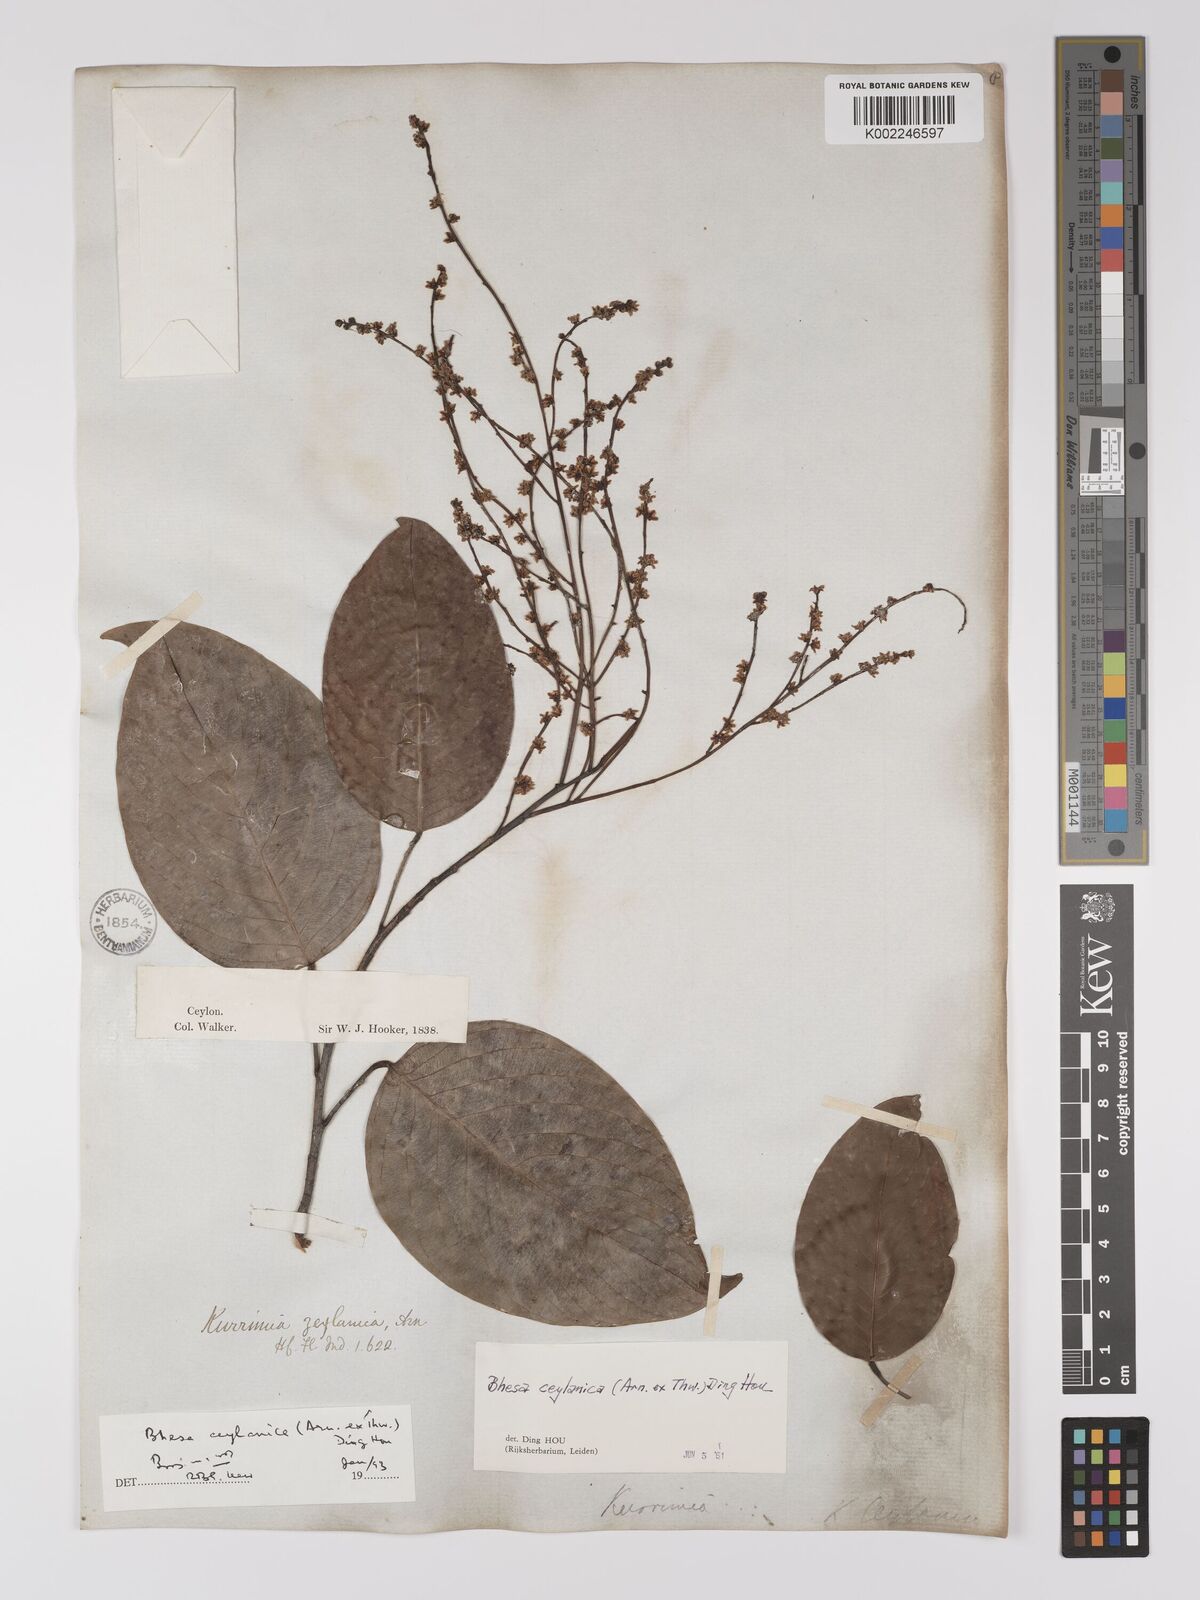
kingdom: Plantae
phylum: Tracheophyta
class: Magnoliopsida
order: Malpighiales
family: Centroplacaceae
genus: Bhesa
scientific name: Bhesa ceylanica
